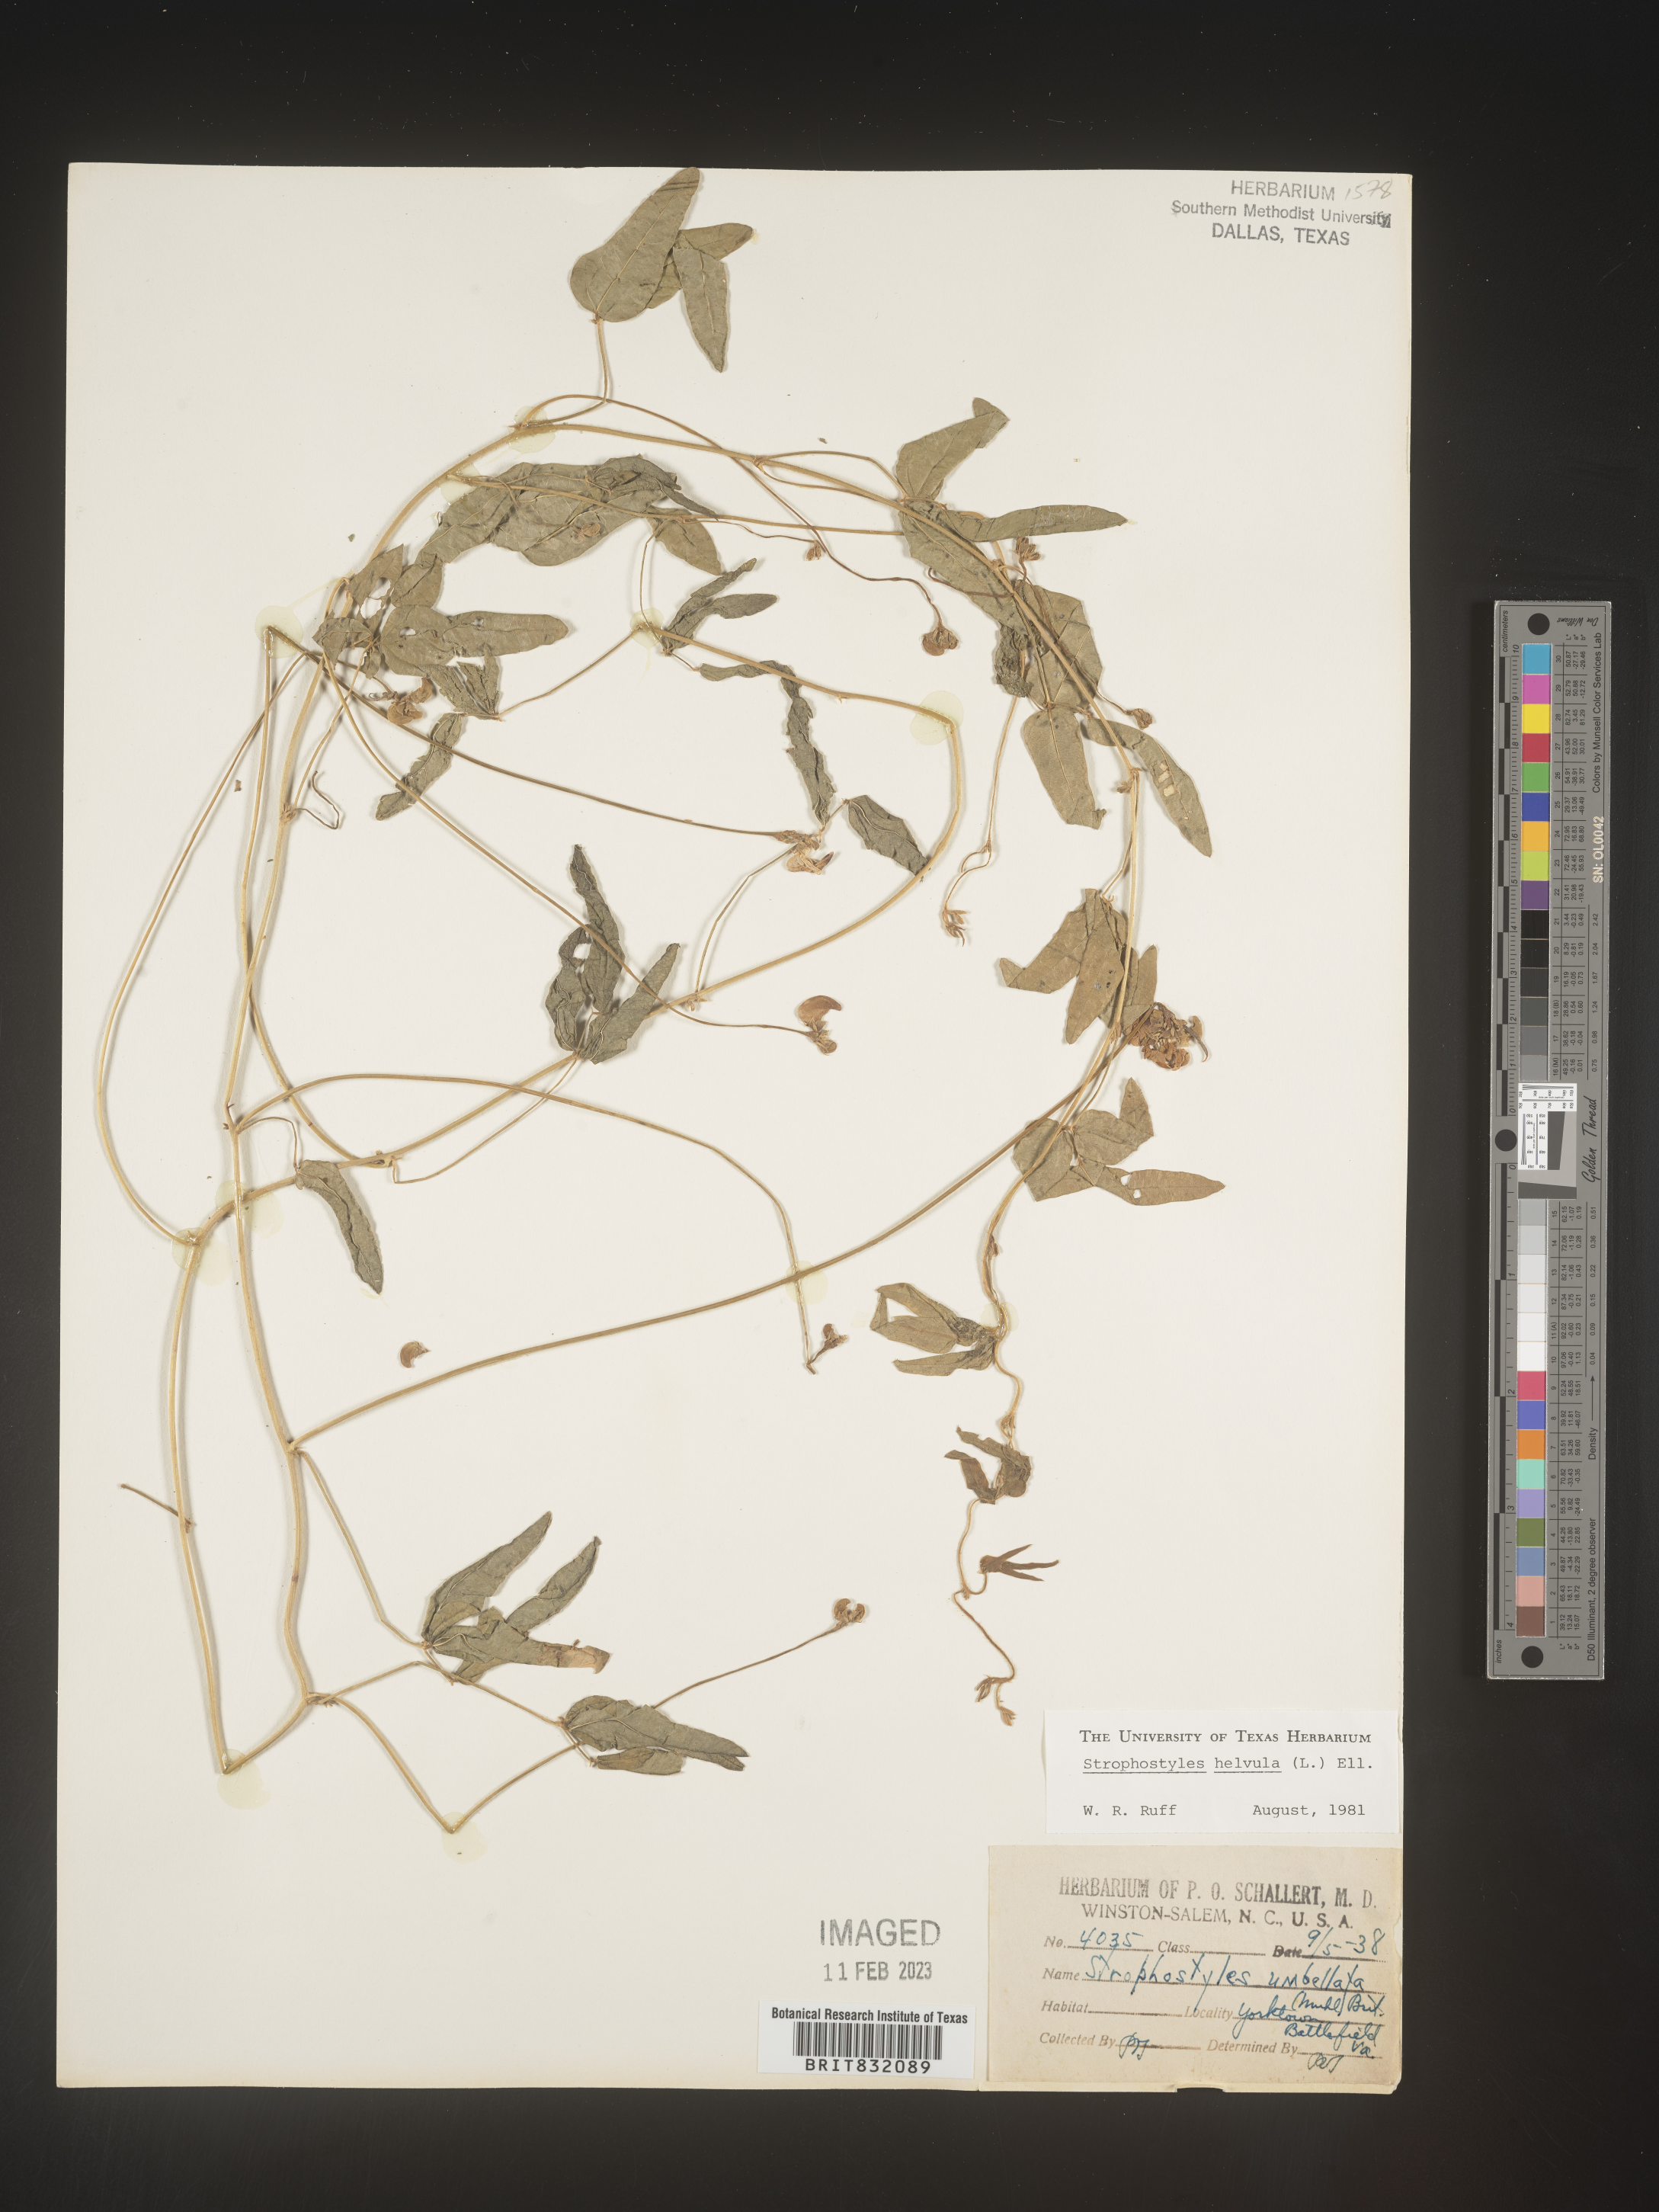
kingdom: Plantae
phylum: Tracheophyta
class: Magnoliopsida
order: Fabales
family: Fabaceae
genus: Strophostyles
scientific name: Strophostyles helvola
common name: Trailing wild bean
